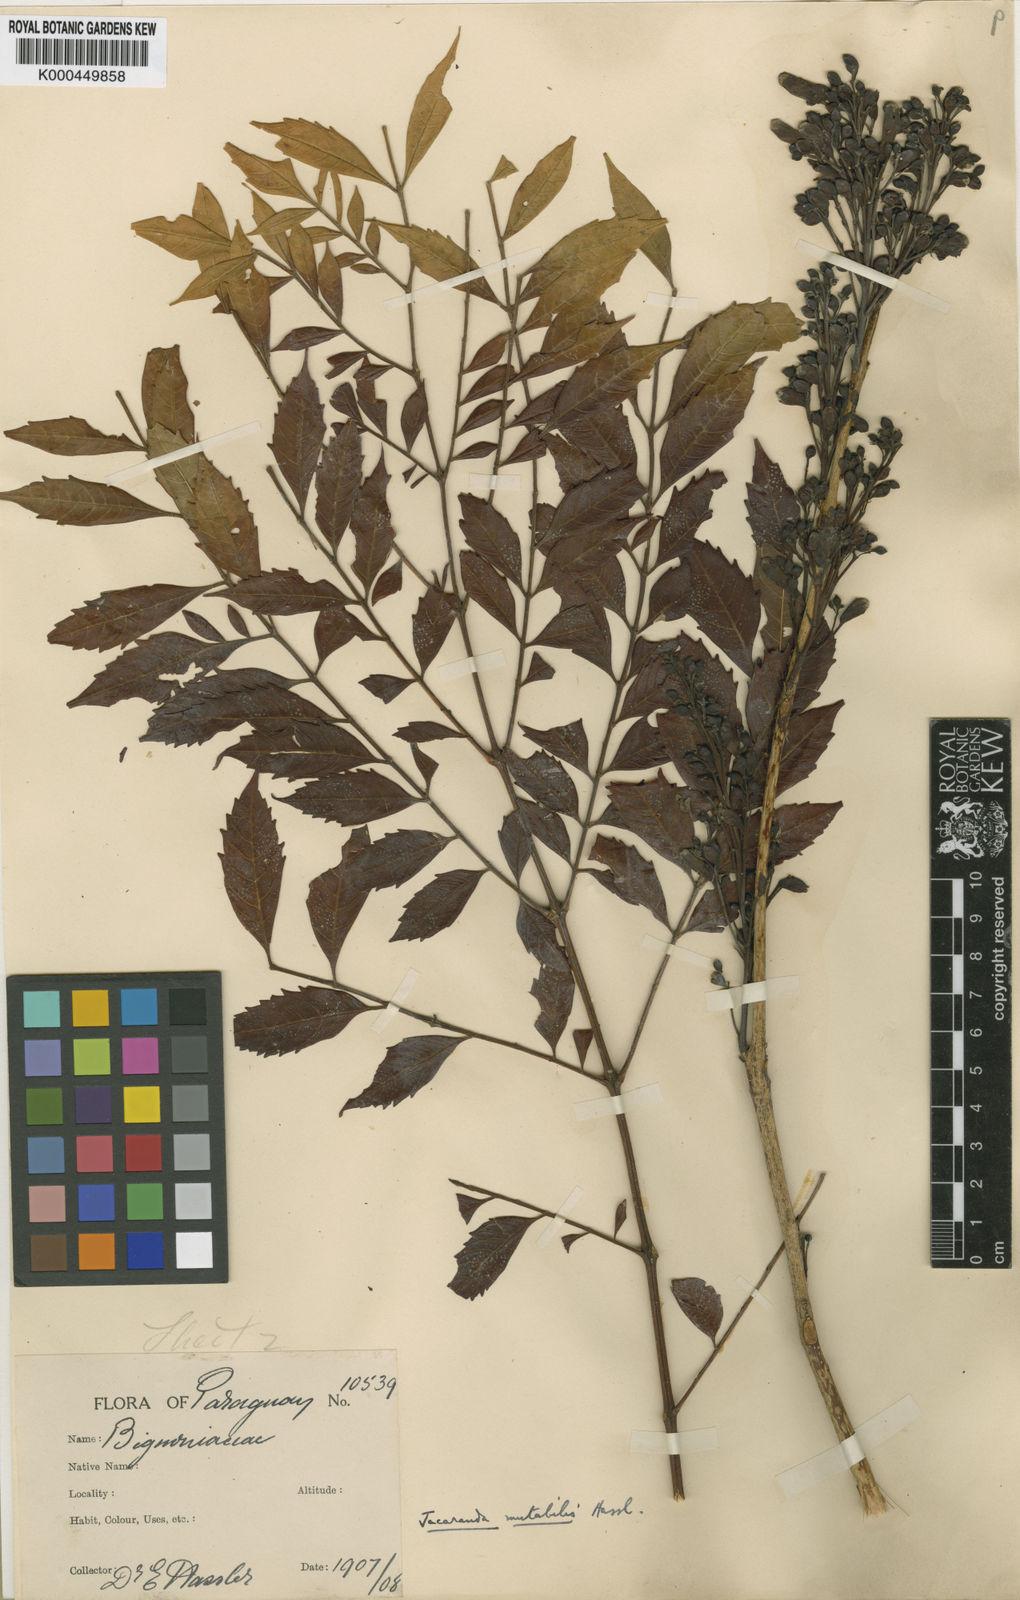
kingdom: Plantae
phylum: Tracheophyta
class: Magnoliopsida
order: Lamiales
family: Bignoniaceae
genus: Jacaranda
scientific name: Jacaranda mutabilis
